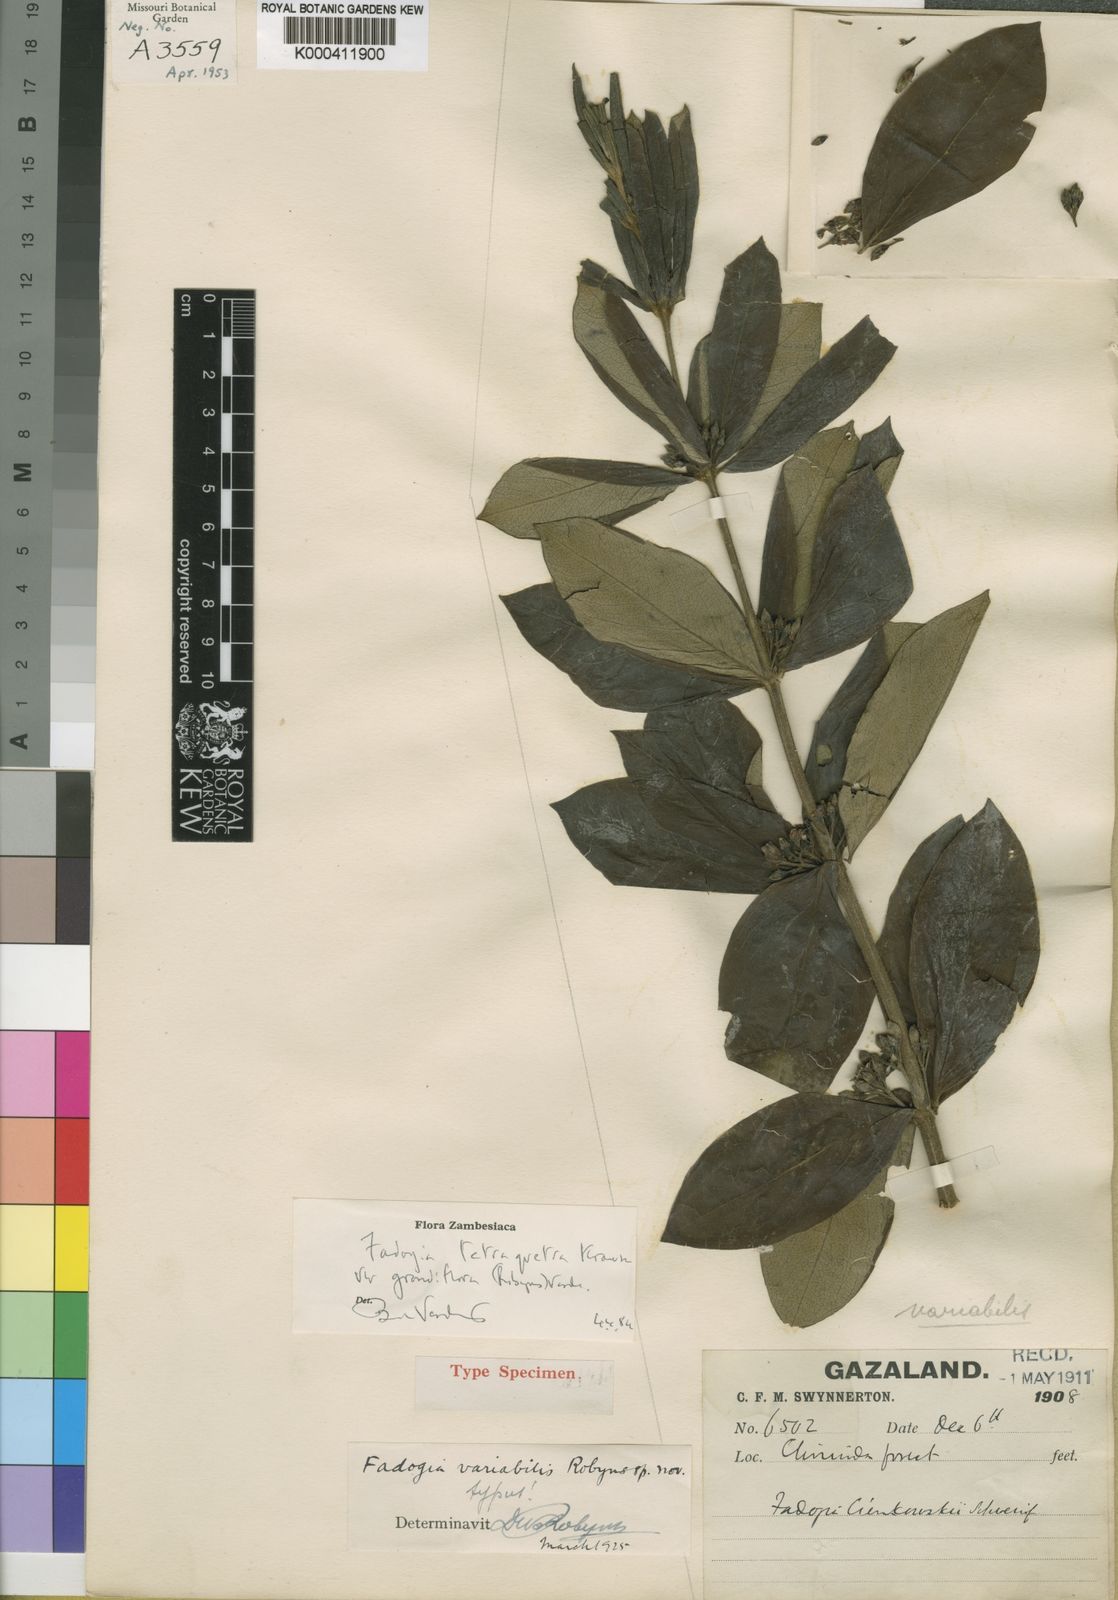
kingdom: Plantae
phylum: Tracheophyta
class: Magnoliopsida
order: Gentianales
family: Rubiaceae
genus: Fadogia
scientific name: Fadogia tetraquetra
